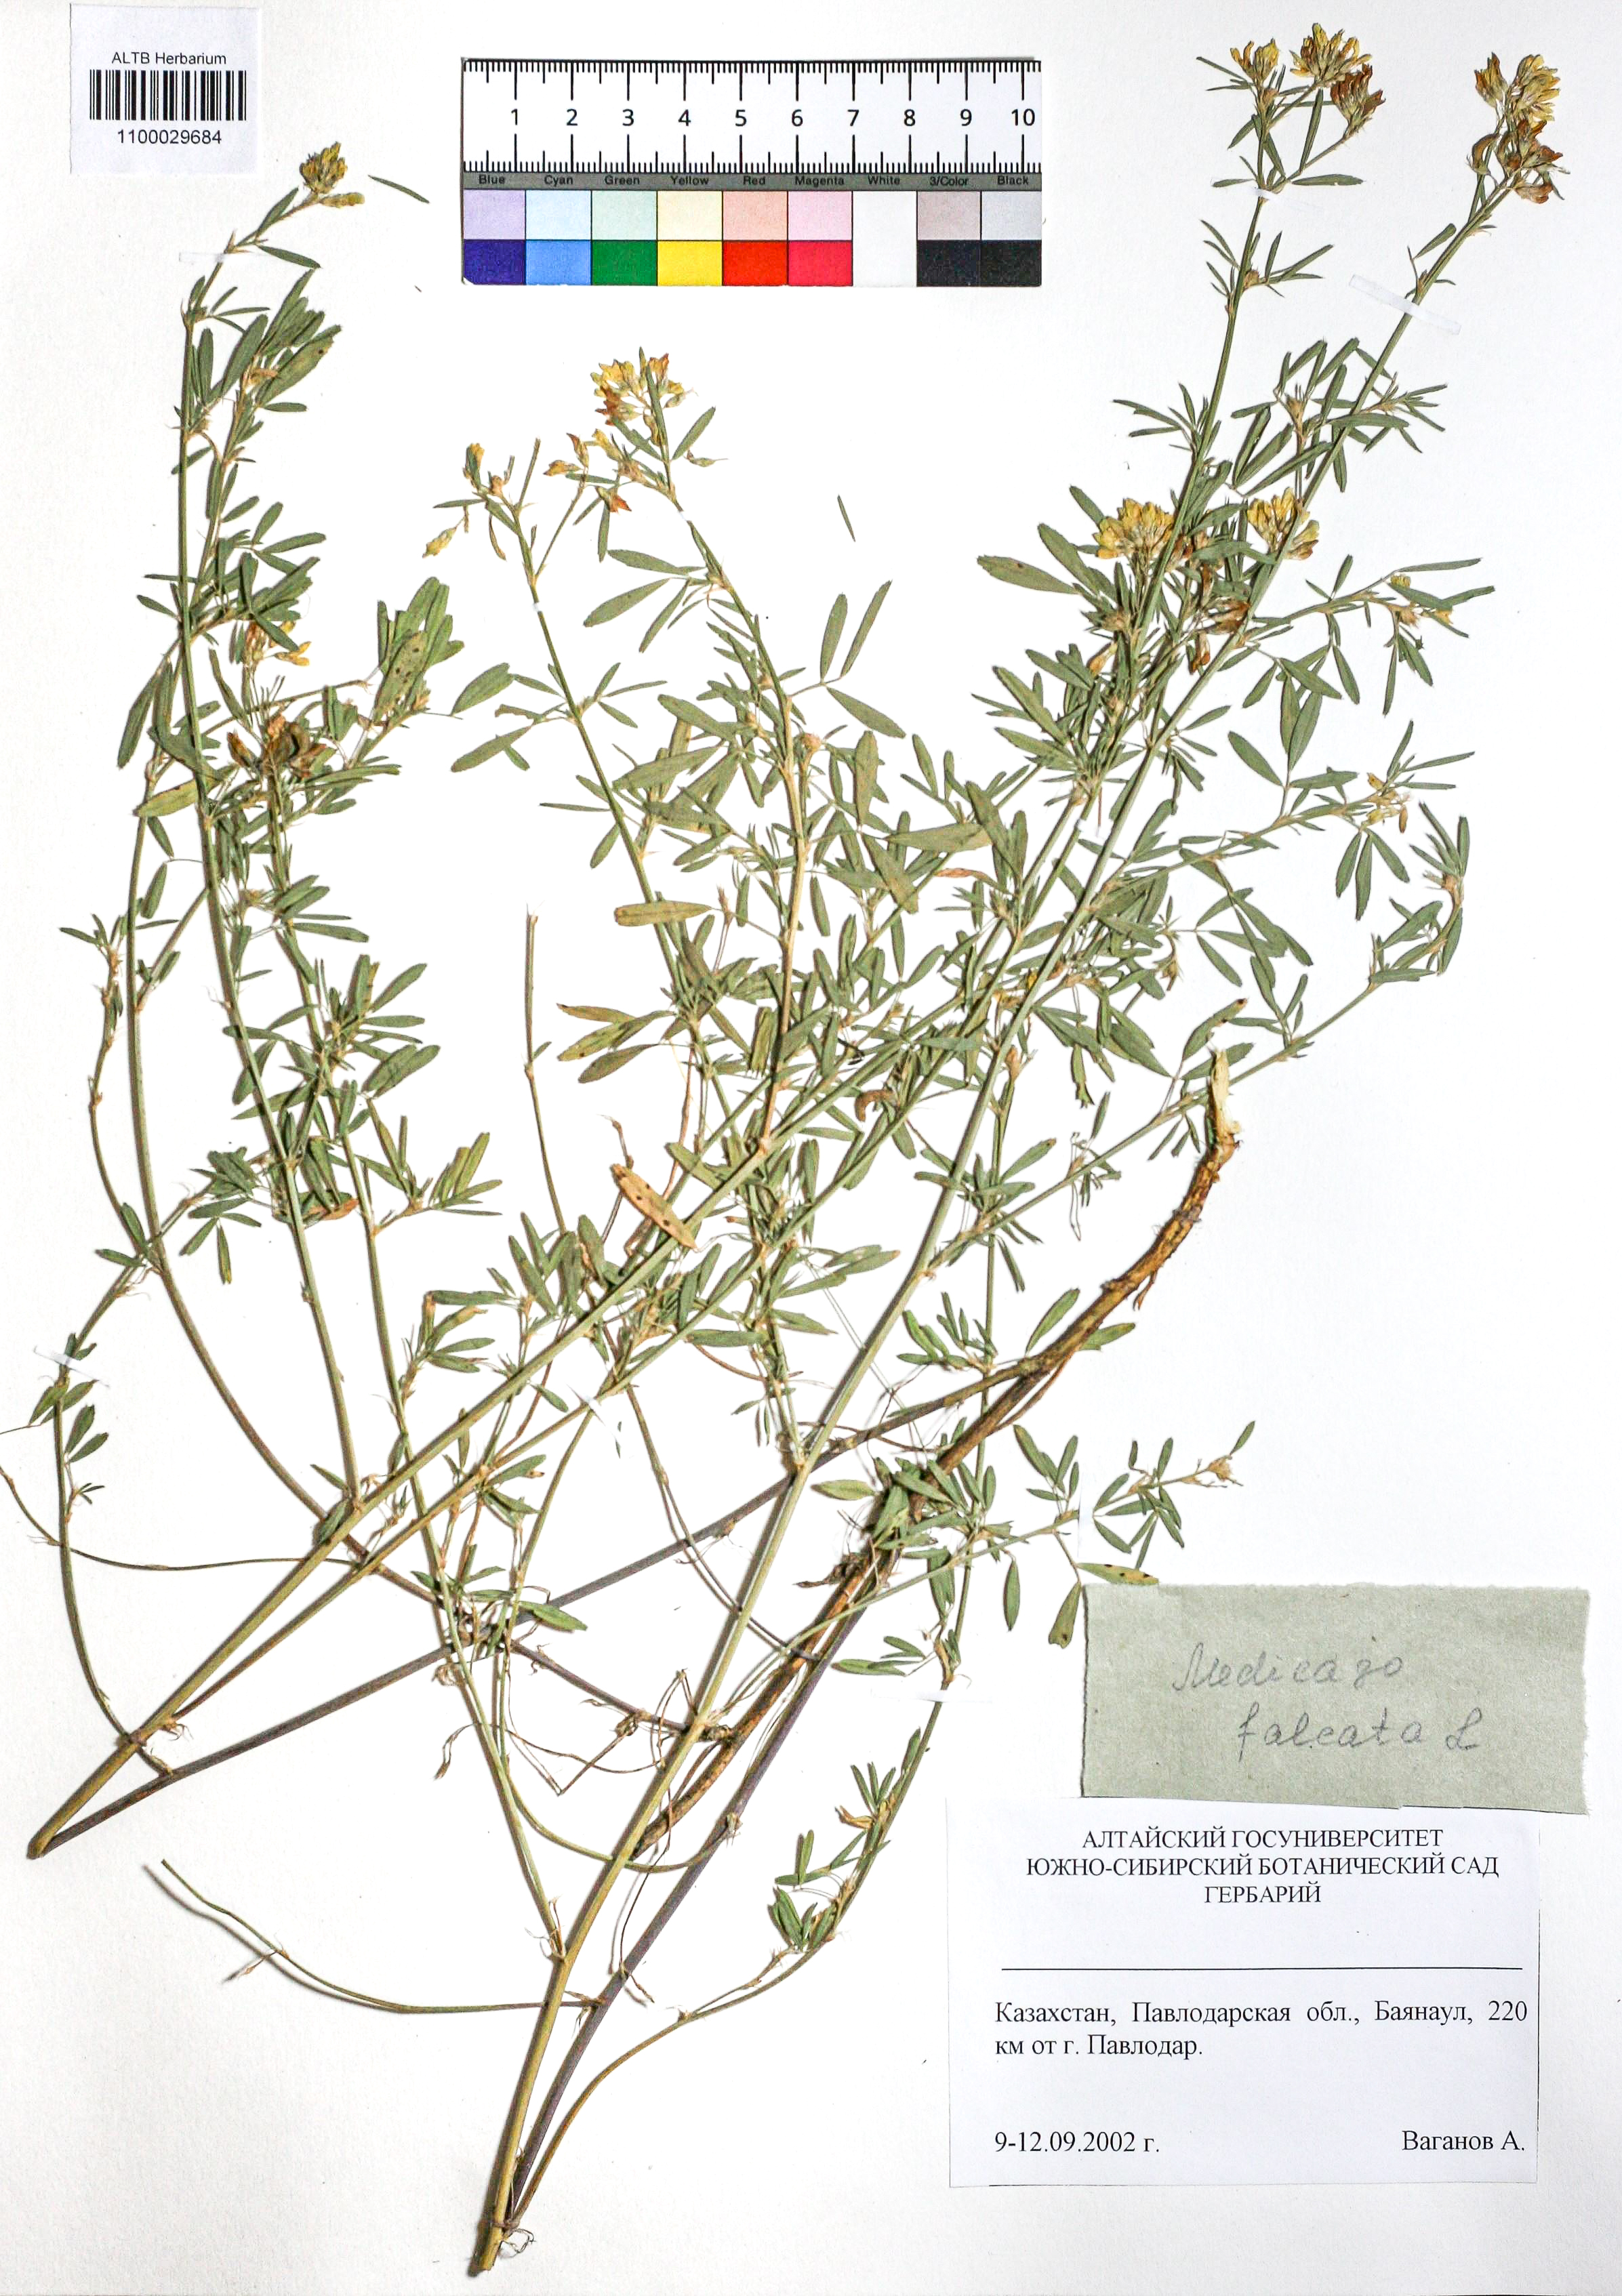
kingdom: Plantae
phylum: Tracheophyta
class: Magnoliopsida
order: Fabales
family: Fabaceae
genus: Medicago
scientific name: Medicago falcata
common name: Sickle medick
